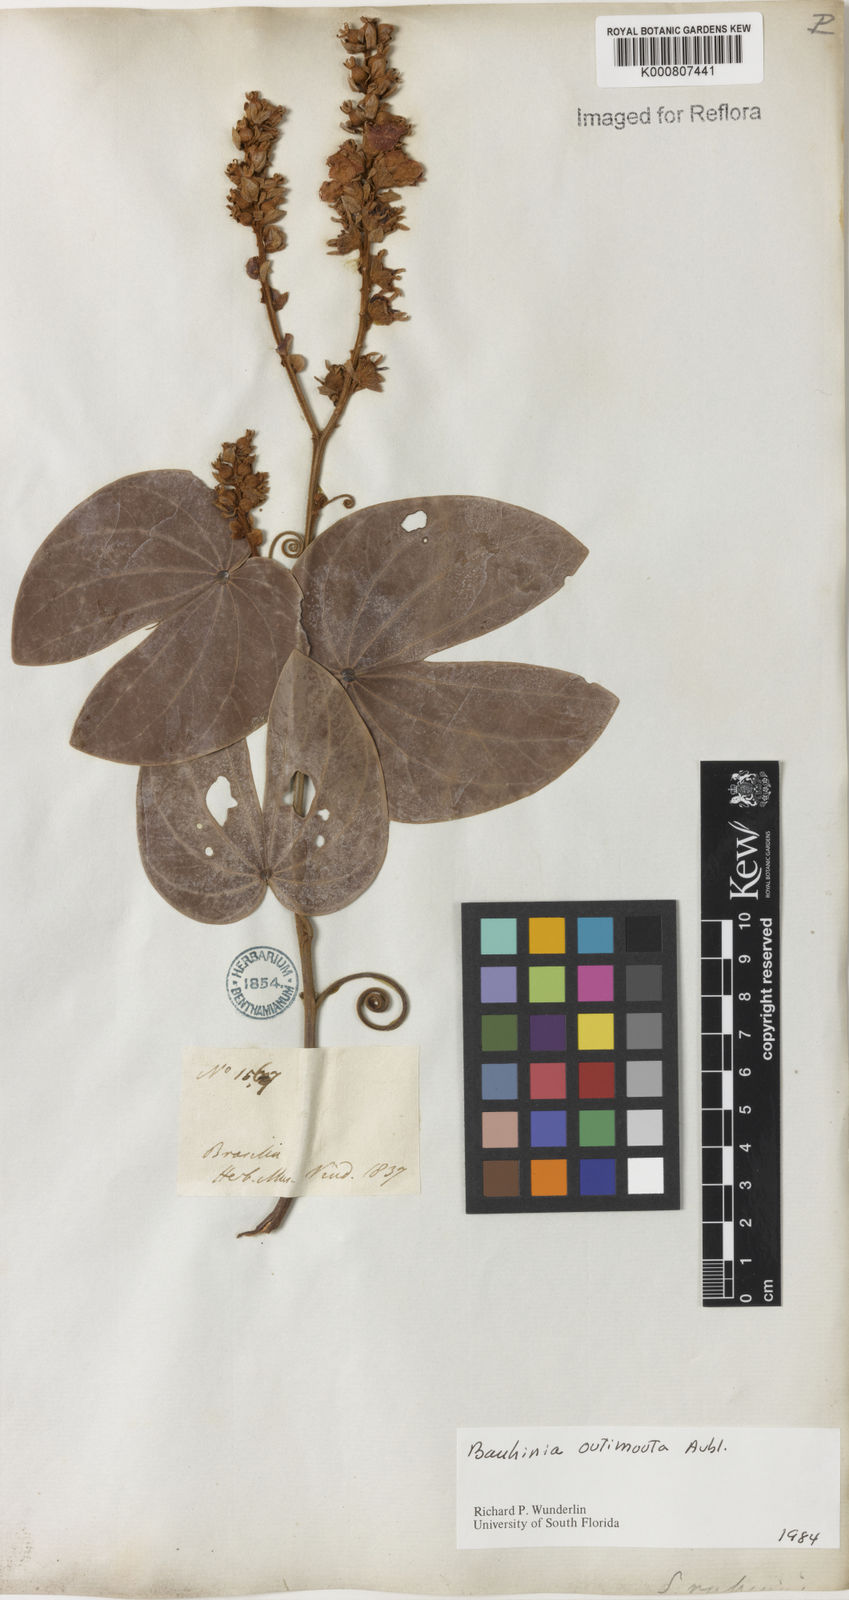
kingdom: Plantae
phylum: Tracheophyta
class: Magnoliopsida
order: Fabales
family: Fabaceae
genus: Schnella
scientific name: Schnella outimouta
